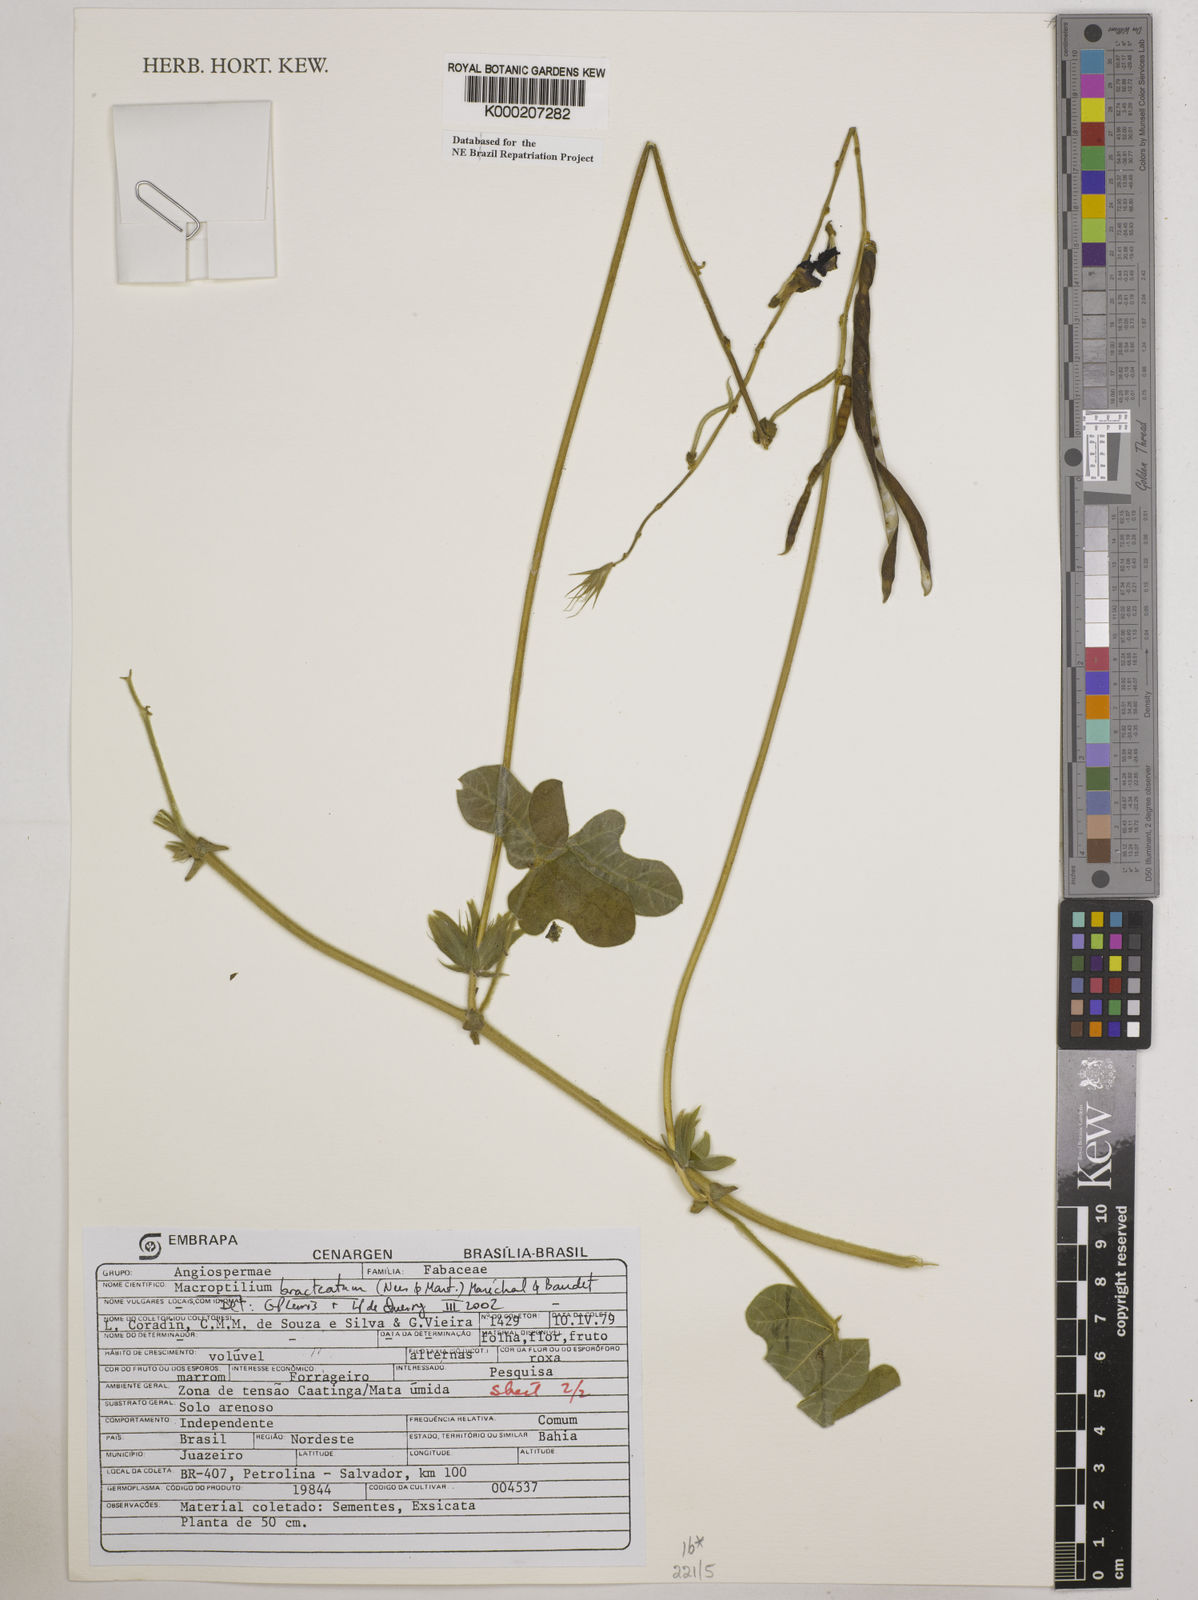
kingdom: Plantae
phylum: Tracheophyta
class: Magnoliopsida
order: Fabales
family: Fabaceae
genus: Macroptilium
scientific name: Macroptilium
